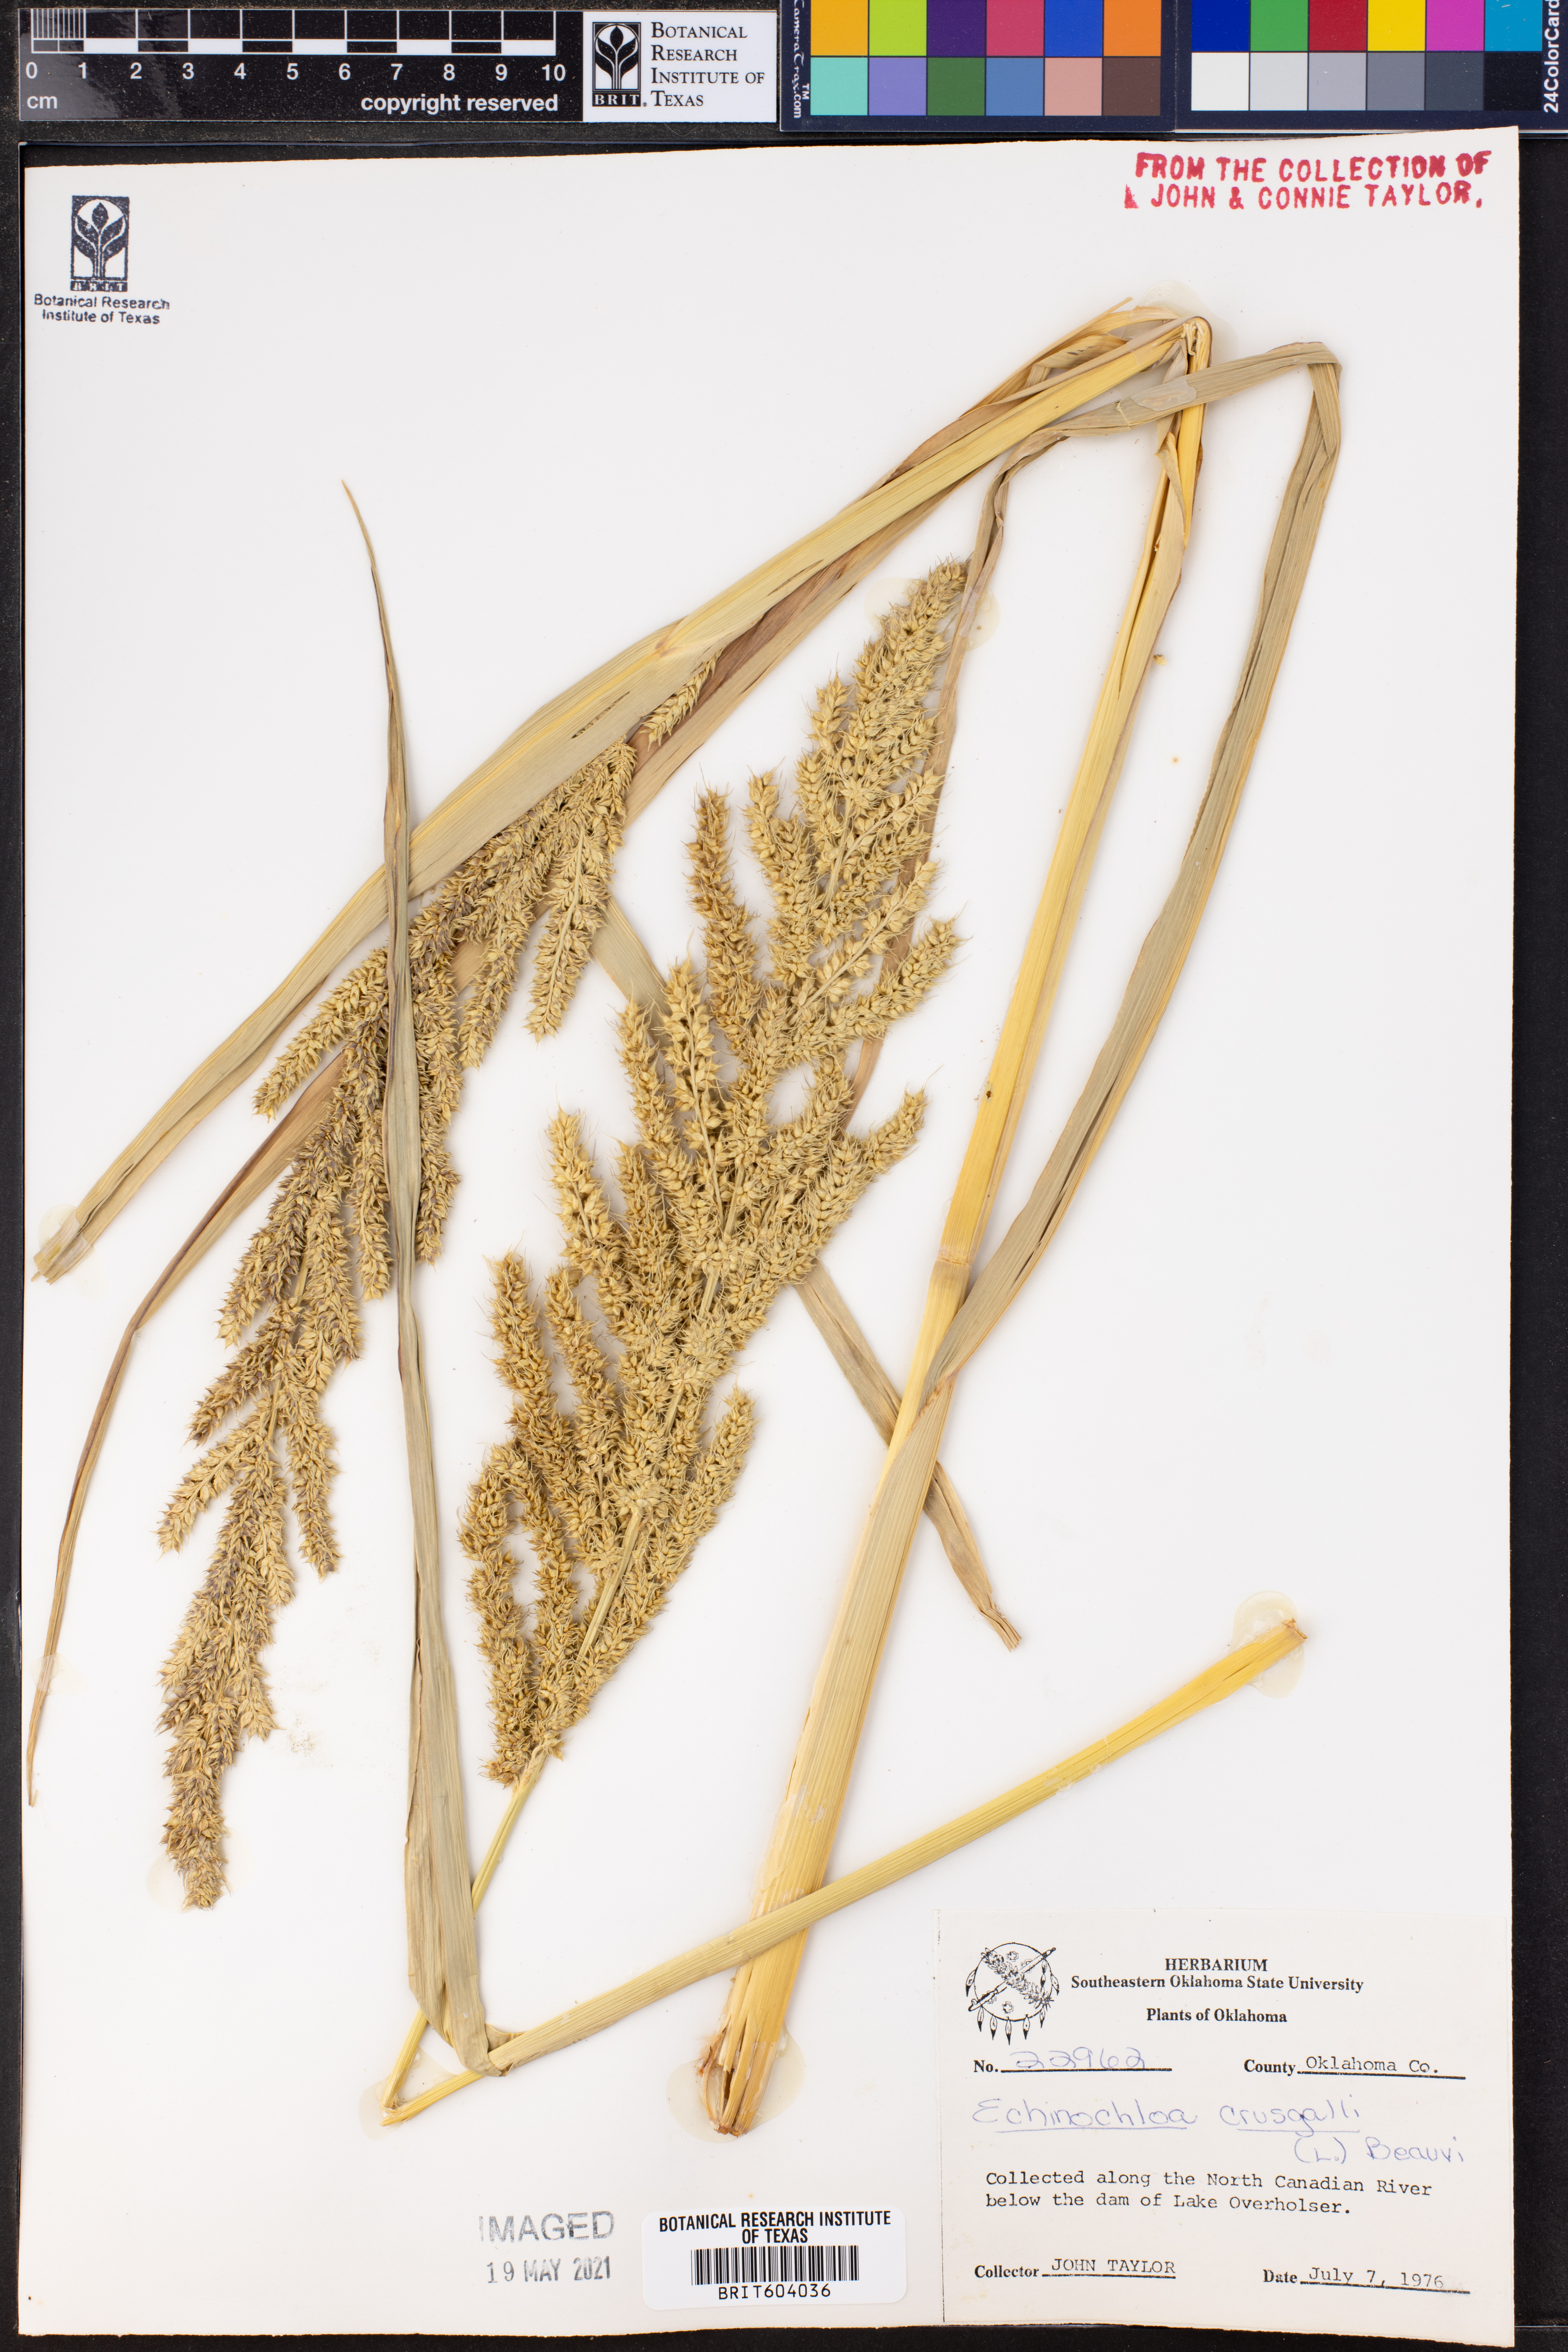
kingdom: Plantae
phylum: Tracheophyta
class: Liliopsida
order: Poales
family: Poaceae
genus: Echinochloa
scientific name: Echinochloa
